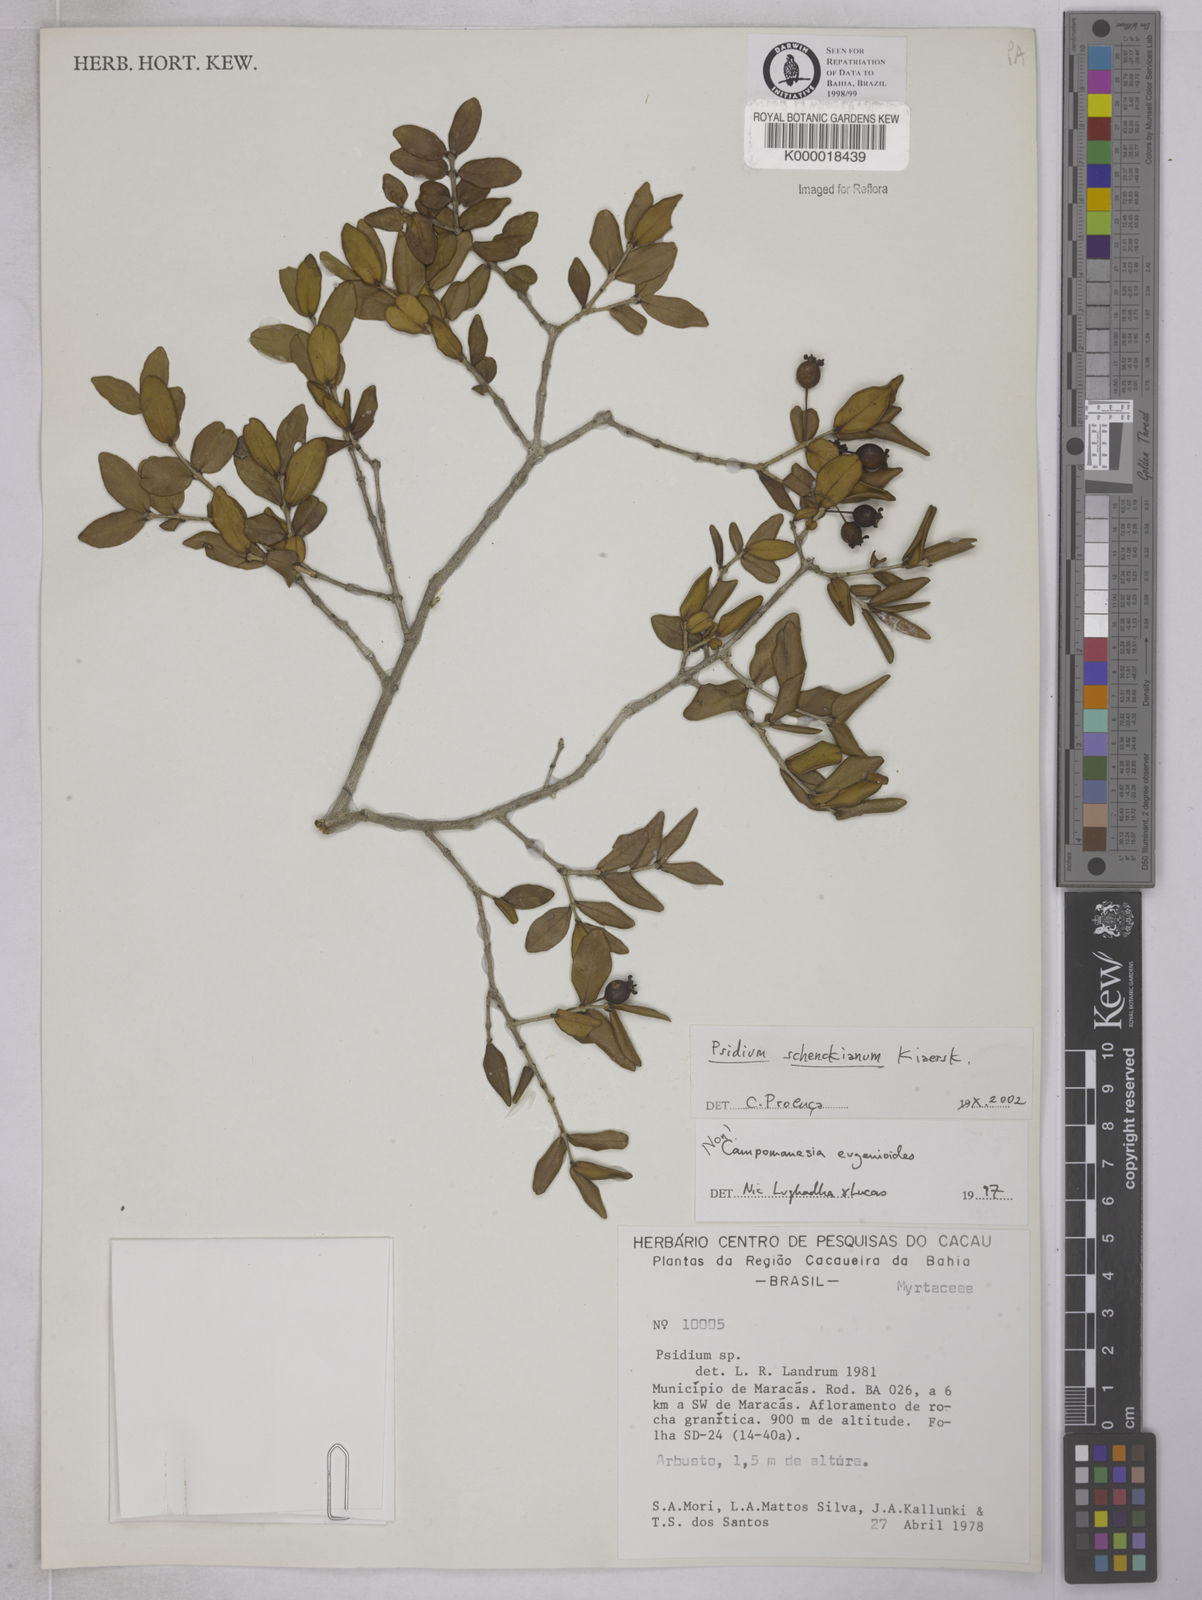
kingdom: Plantae
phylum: Tracheophyta
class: Magnoliopsida
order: Myrtales
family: Myrtaceae
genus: Campomanesia
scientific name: Campomanesia
